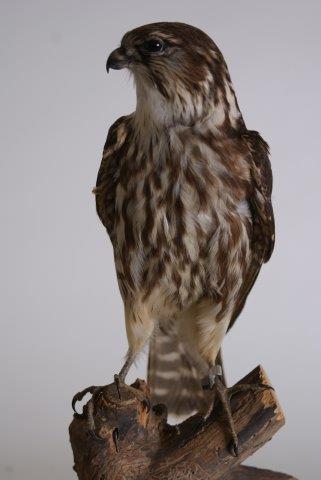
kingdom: Animalia
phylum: Chordata
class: Aves
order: Falconiformes
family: Falconidae
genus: Falco
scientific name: Falco columbarius
